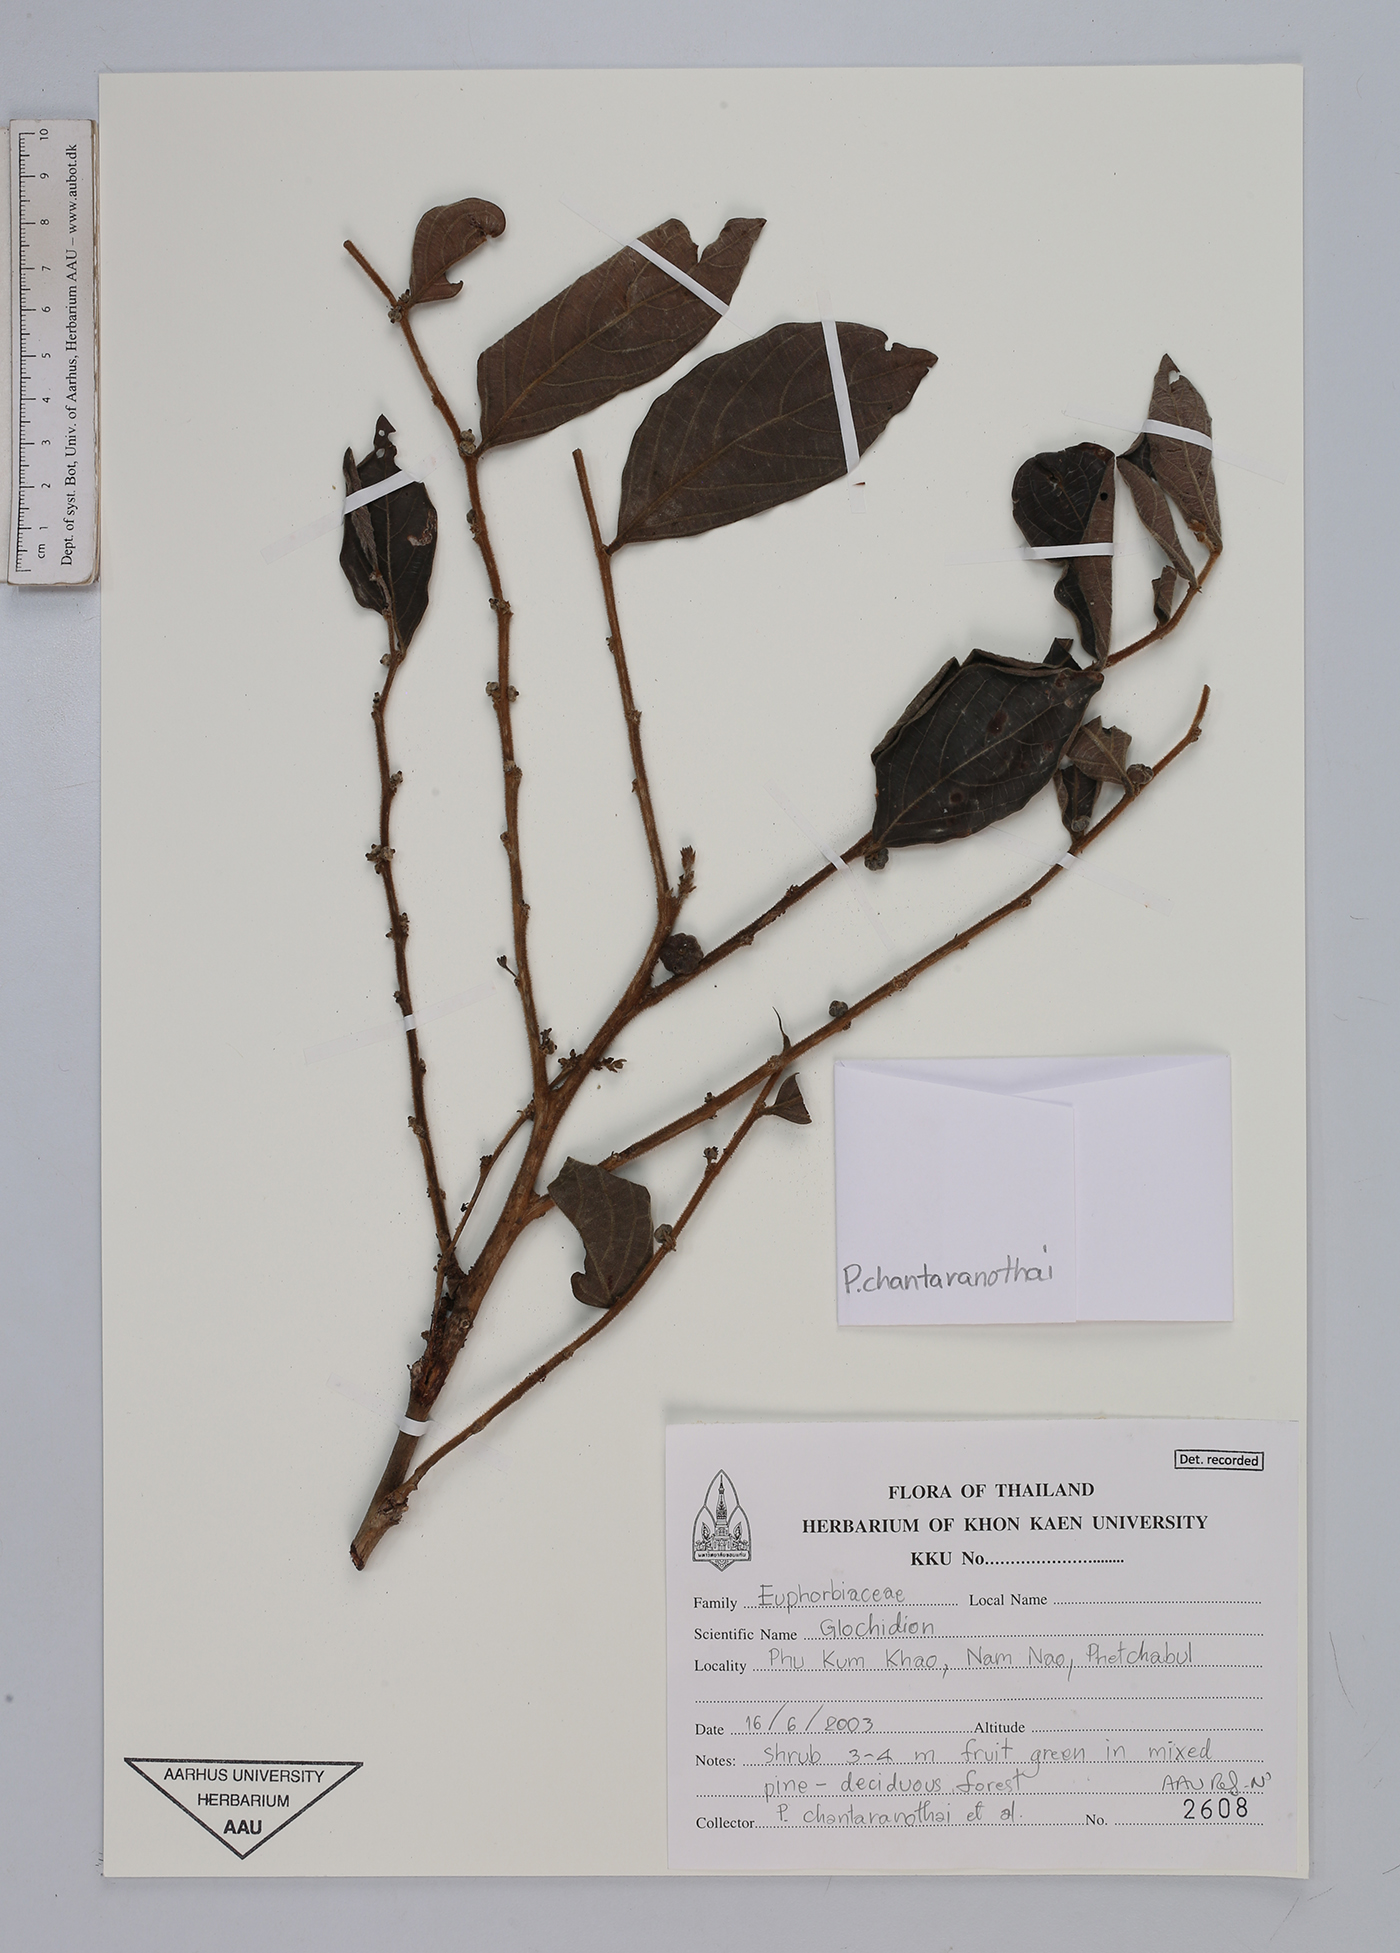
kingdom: Plantae
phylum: Tracheophyta
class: Magnoliopsida
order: Malpighiales
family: Phyllanthaceae
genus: Glochidion
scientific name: Glochidion
